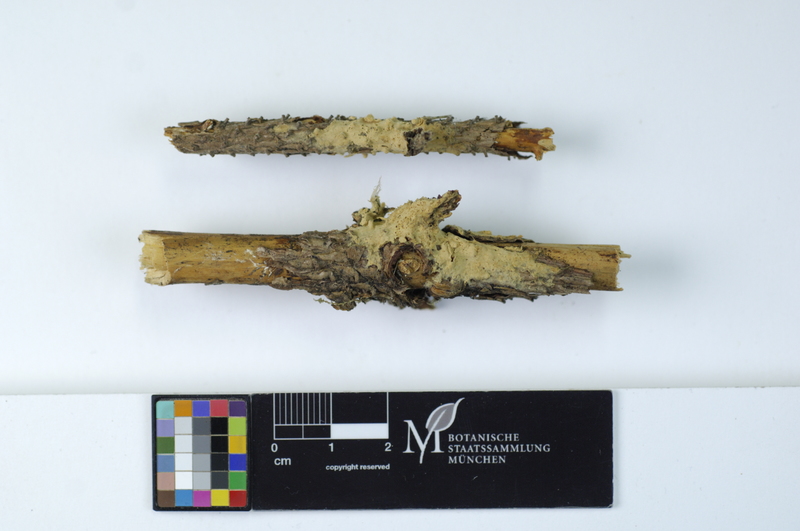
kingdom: Plantae
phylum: Tracheophyta
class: Pinopsida
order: Pinales
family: Pinaceae
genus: Picea
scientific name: Picea
